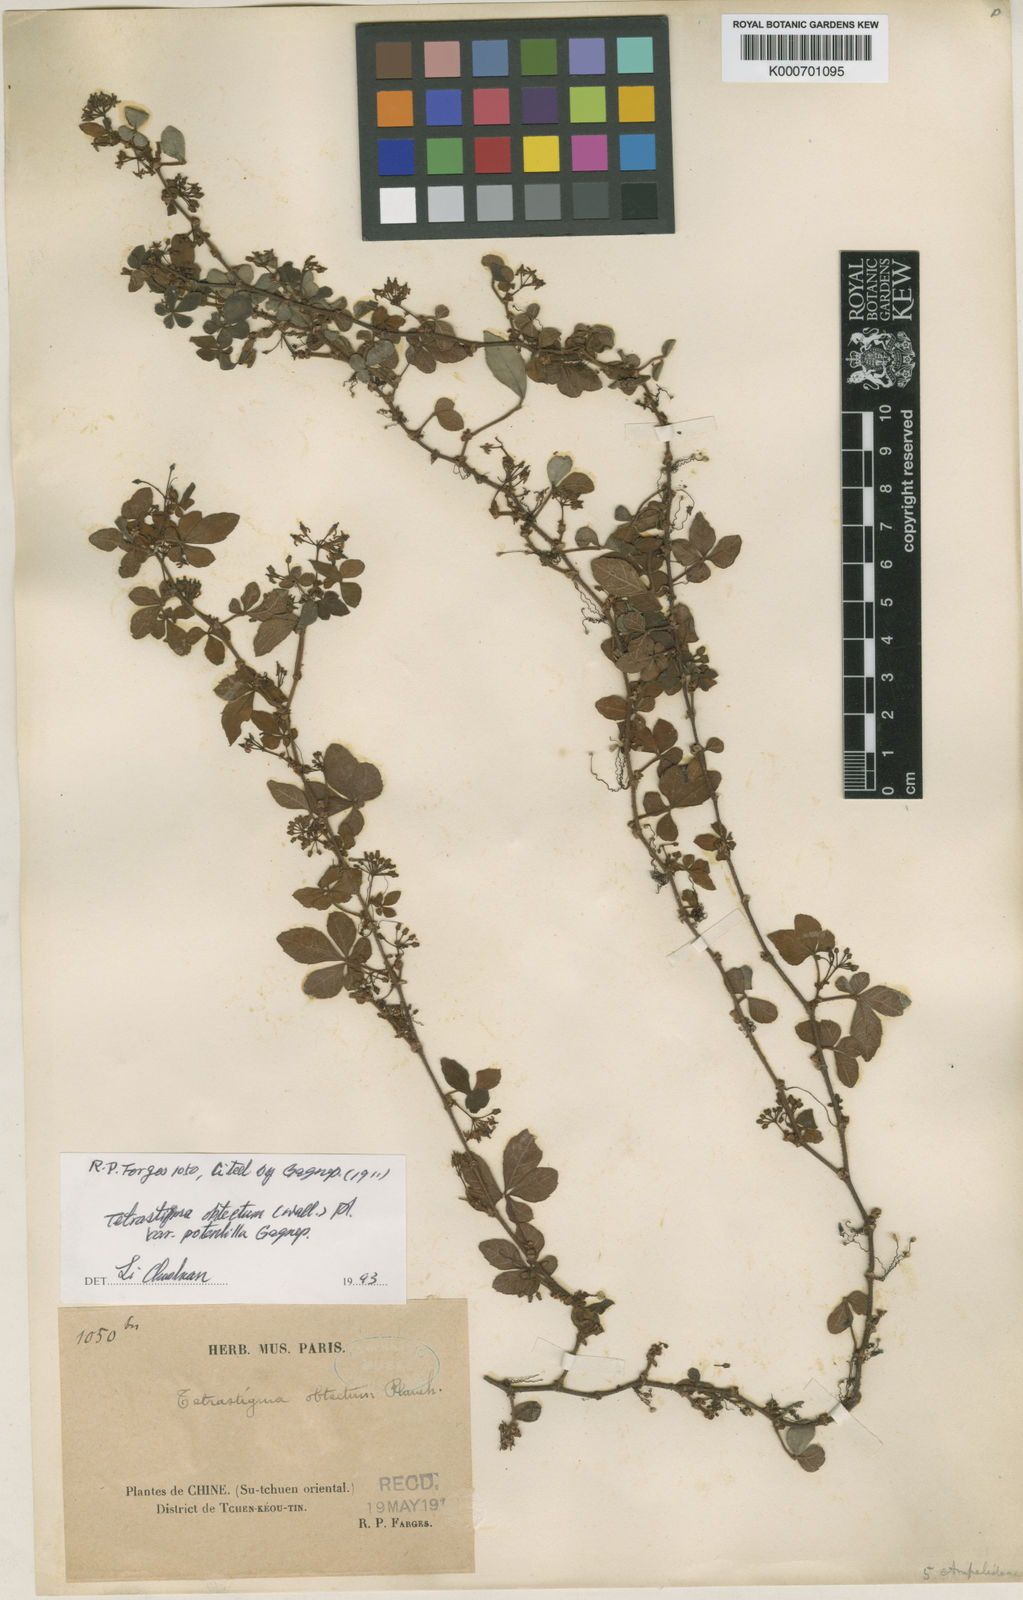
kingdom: Plantae
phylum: Tracheophyta
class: Magnoliopsida
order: Vitales
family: Vitaceae
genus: Tetrastigma
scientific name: Tetrastigma
